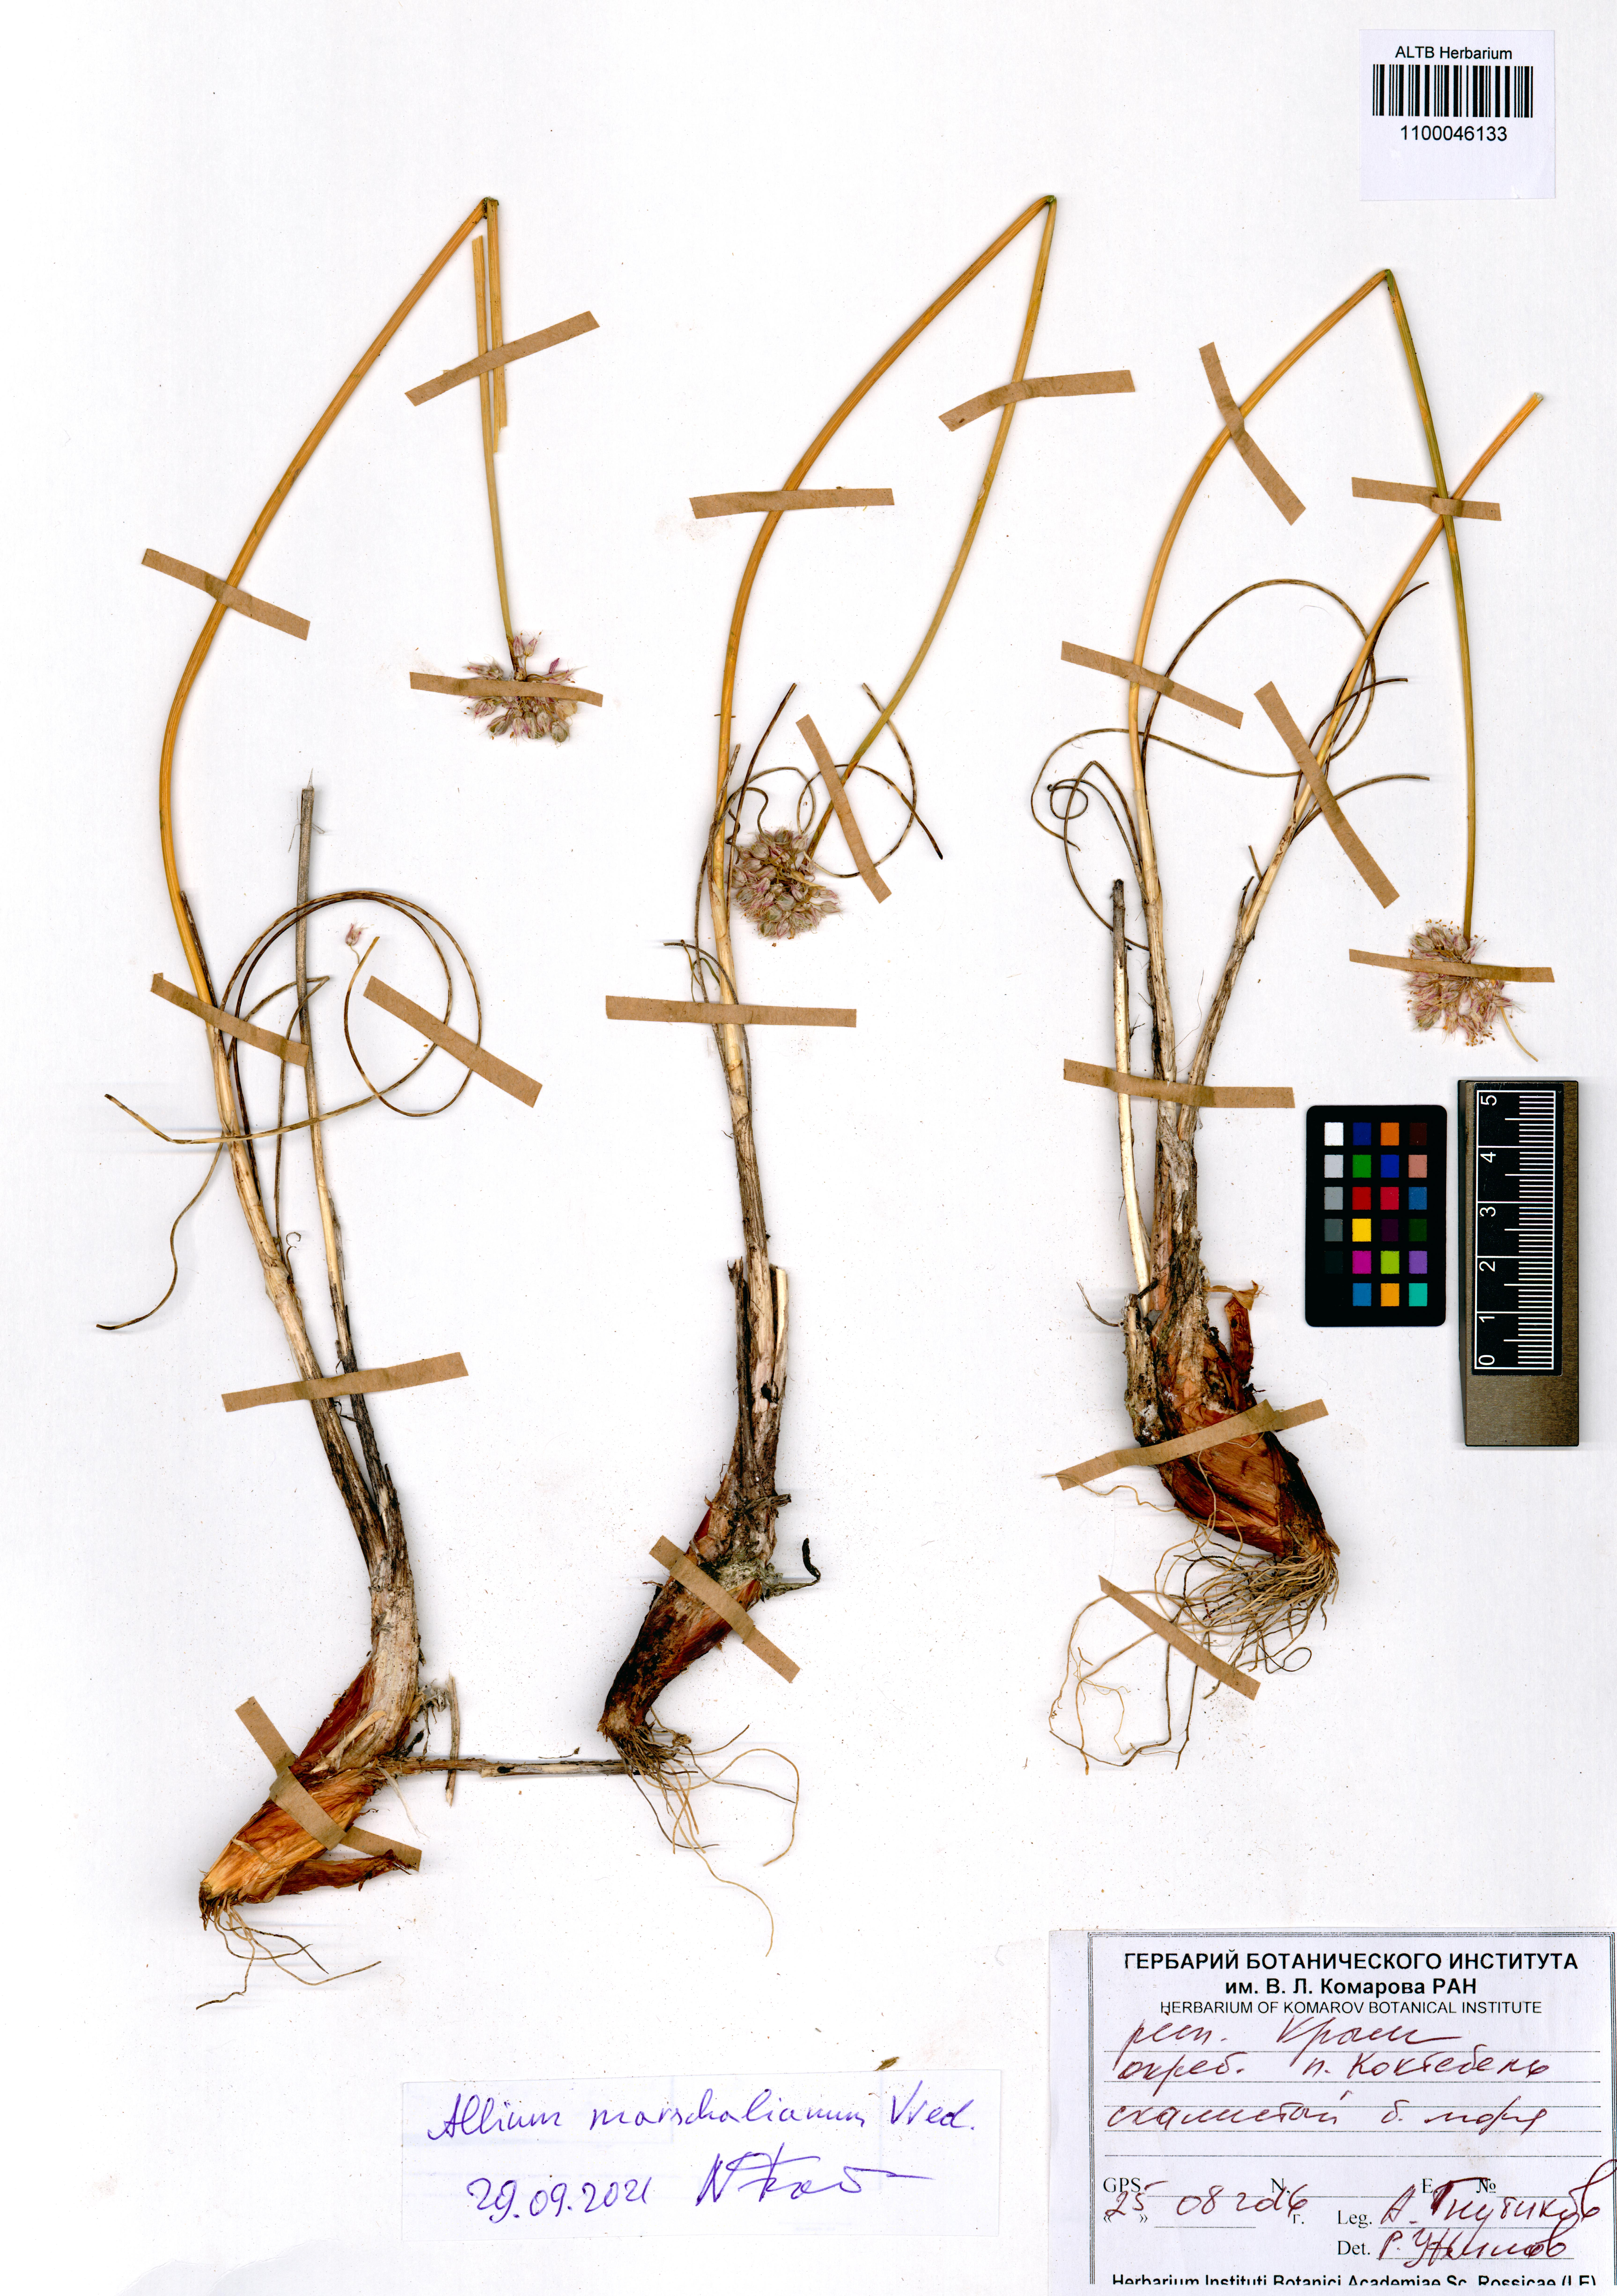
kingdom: Plantae
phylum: Tracheophyta
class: Liliopsida
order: Asparagales
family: Amaryllidaceae
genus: Allium
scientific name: Allium marschallianum
